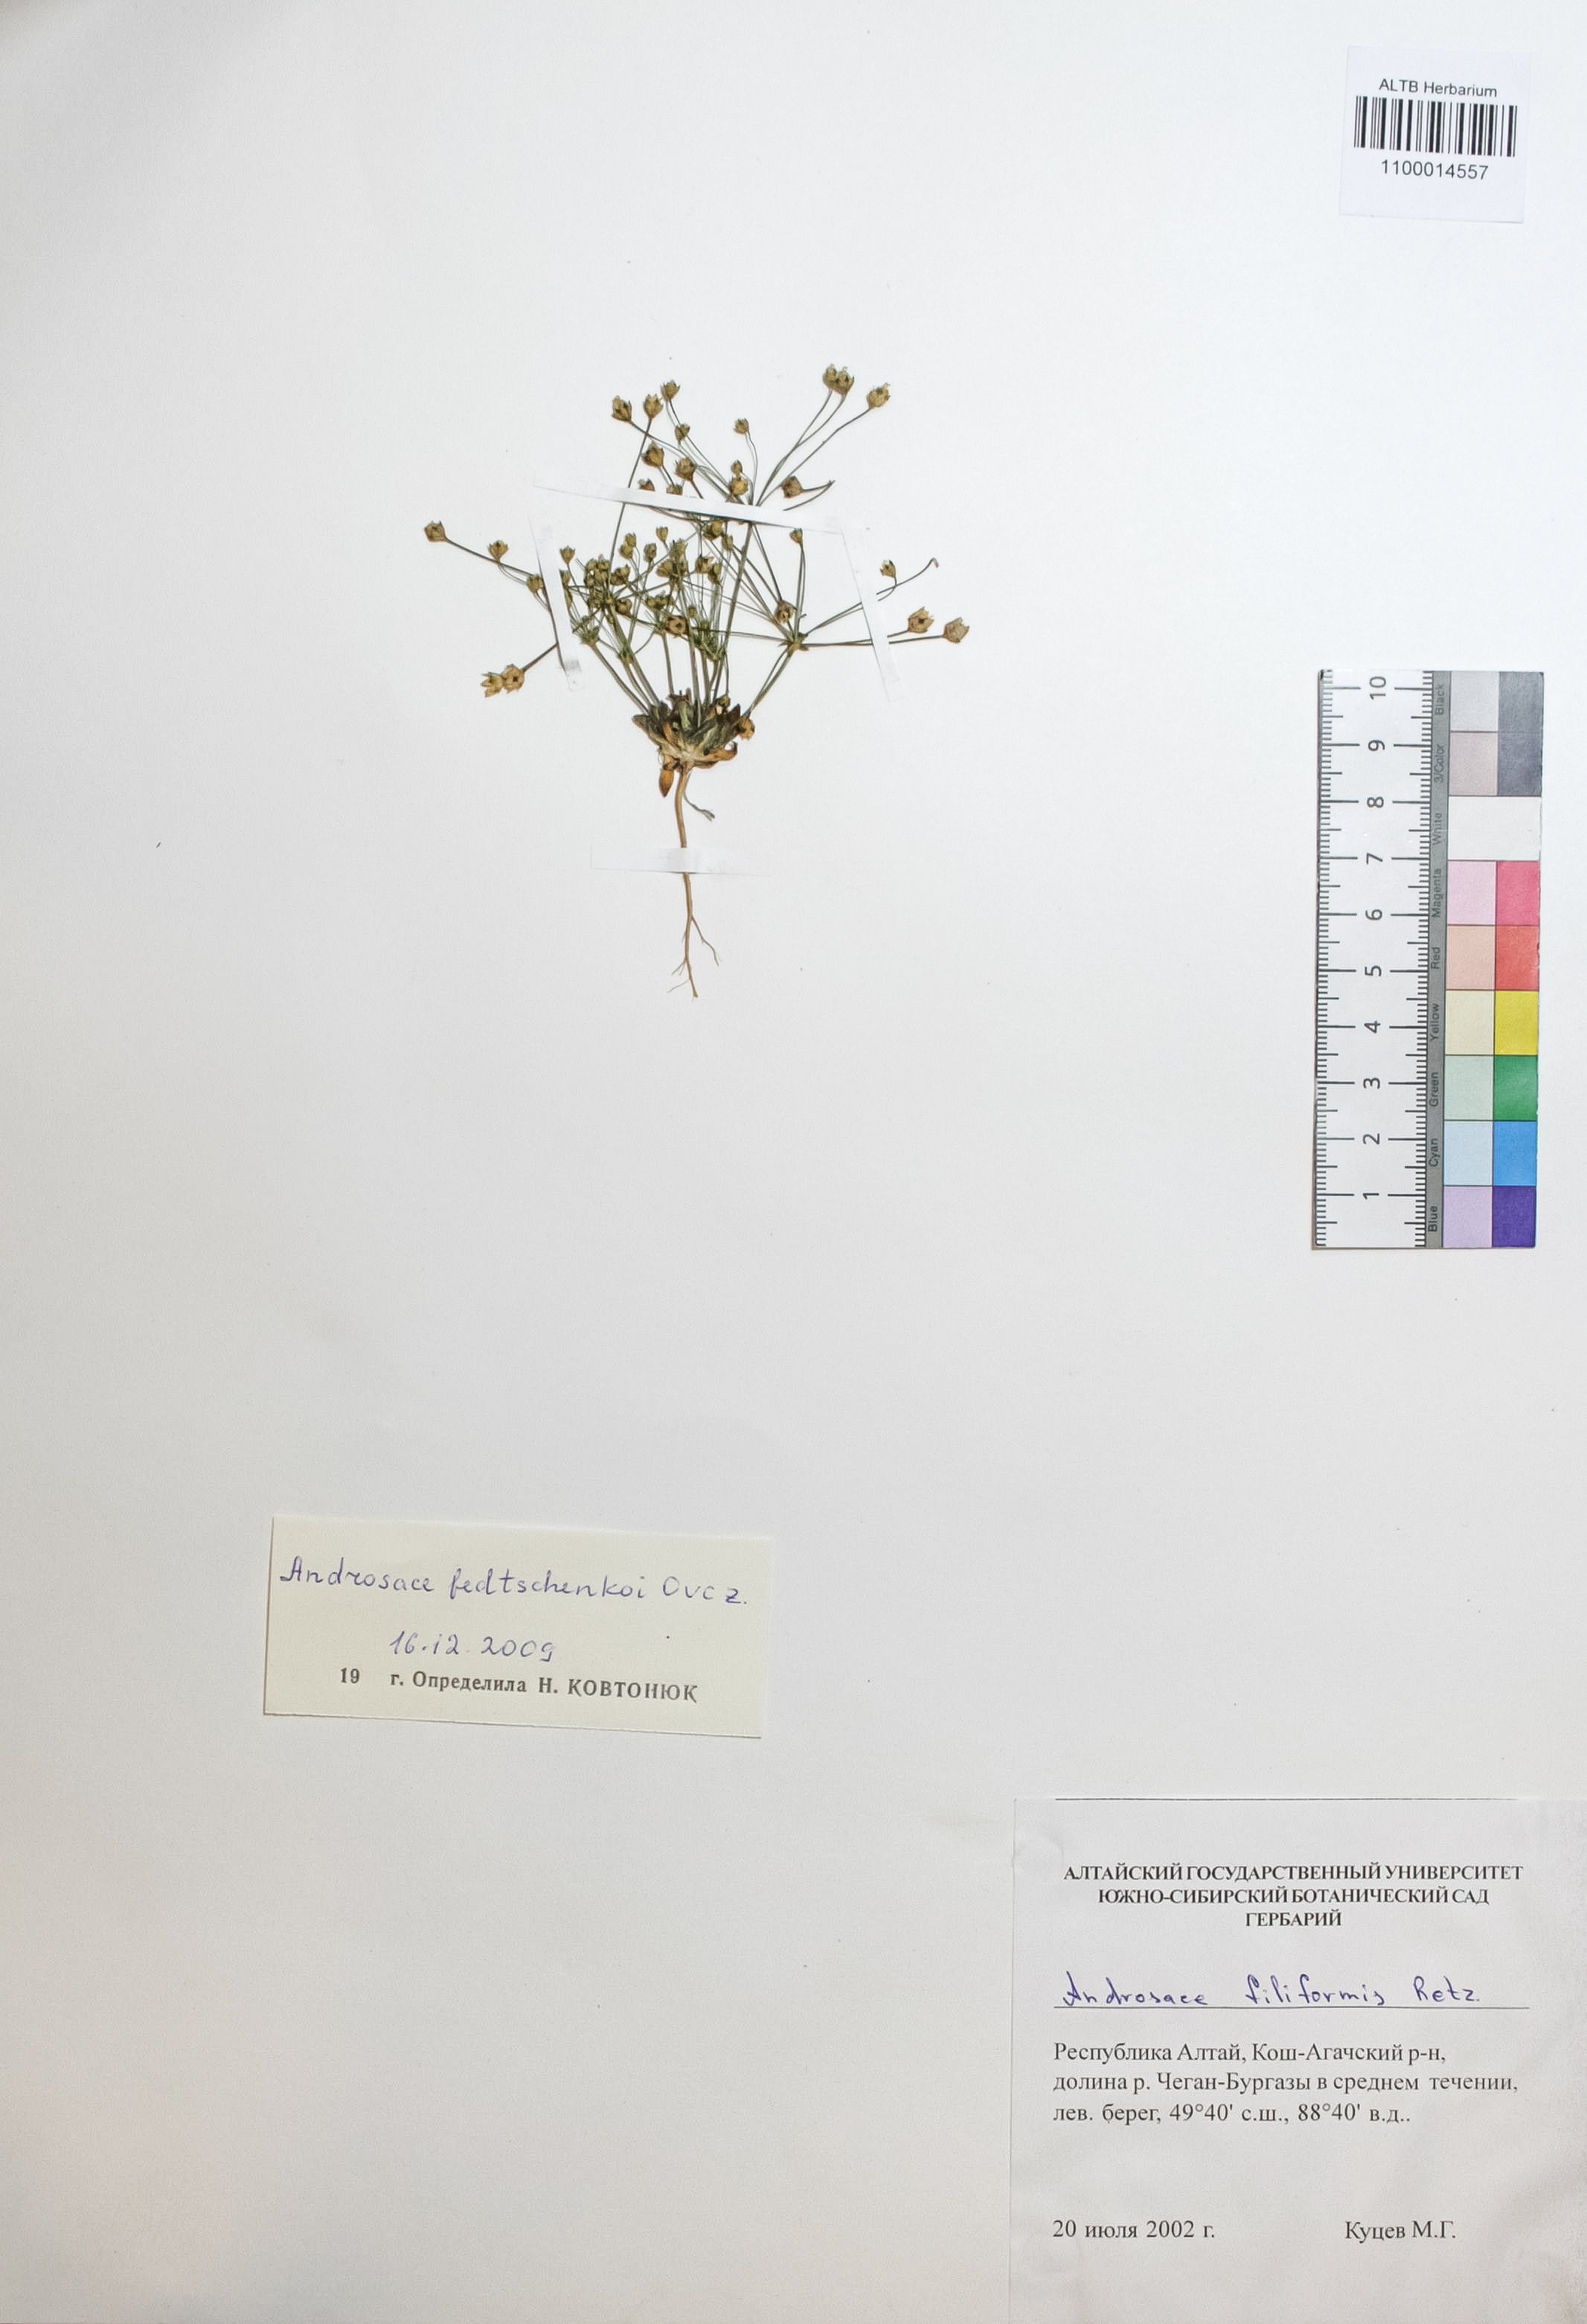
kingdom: Plantae
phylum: Tracheophyta
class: Magnoliopsida
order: Ericales
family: Primulaceae
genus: Androsace
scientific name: Androsace fedtschenkoi
